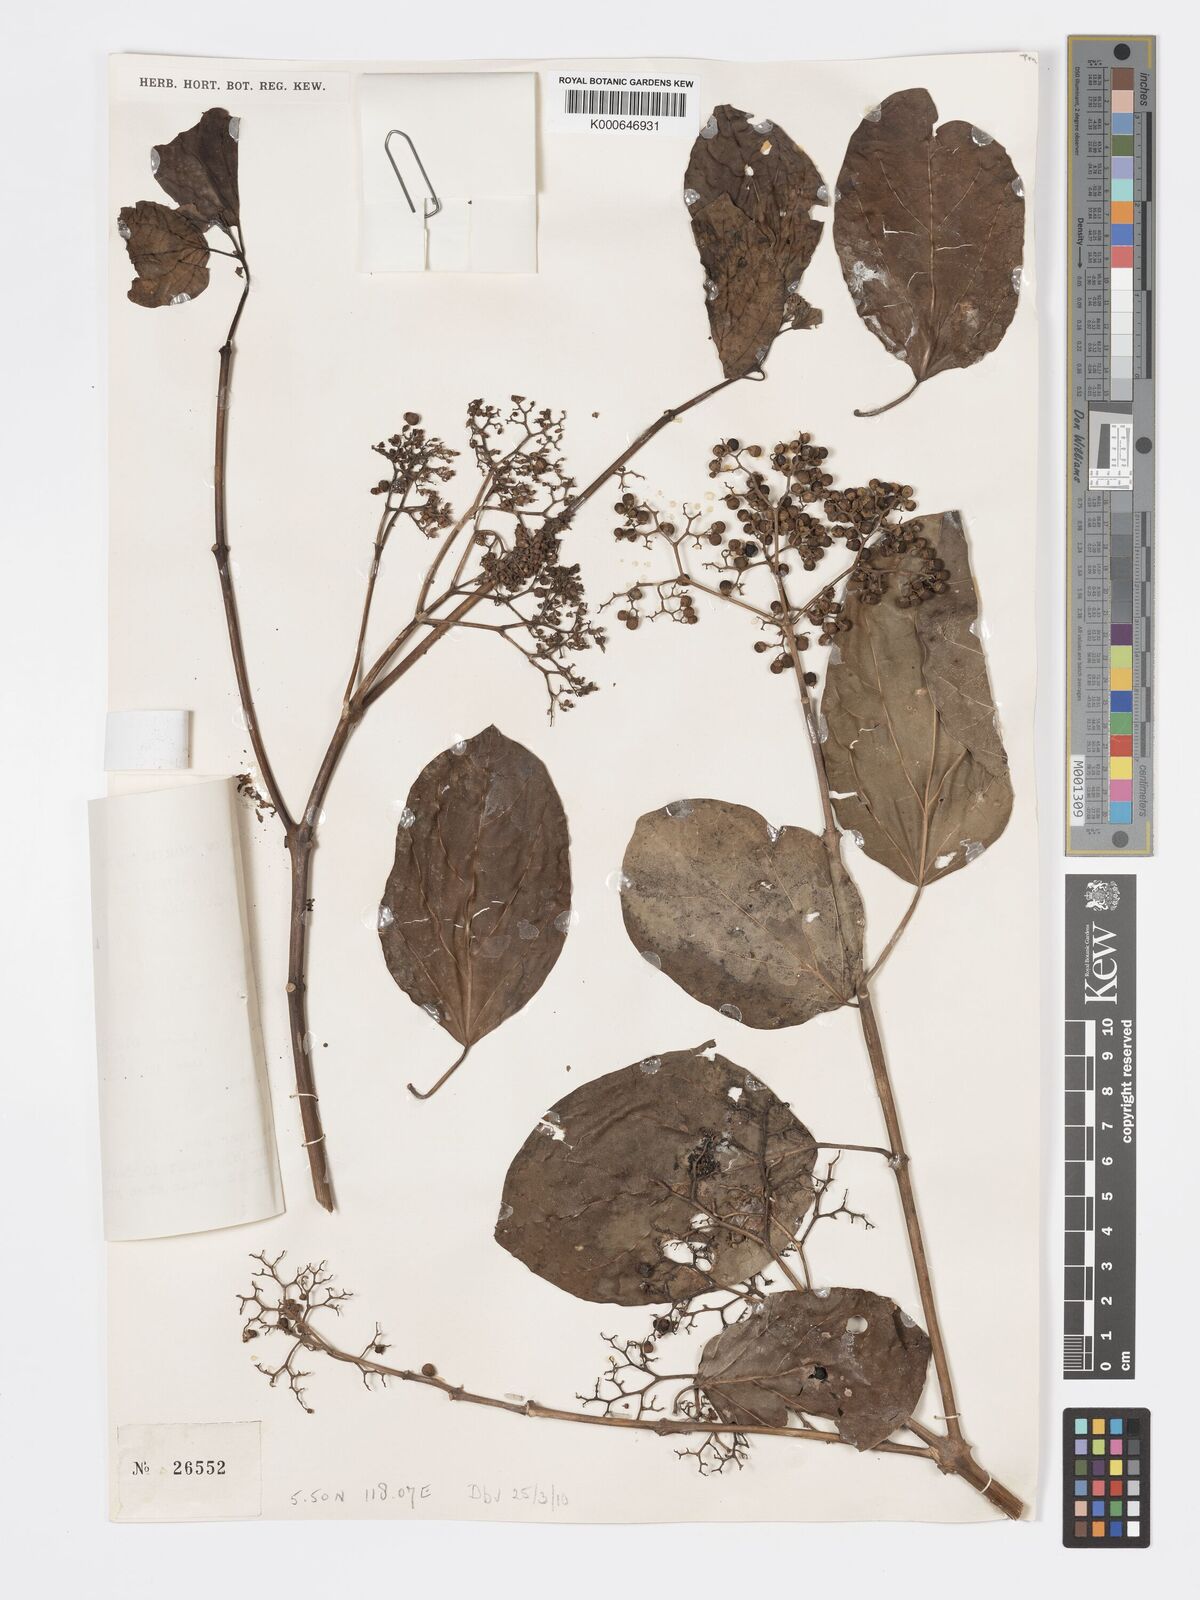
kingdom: Plantae
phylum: Tracheophyta
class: Magnoliopsida
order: Lamiales
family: Lamiaceae
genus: Premna
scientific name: Premna serratifolia
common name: Bastard guelder
